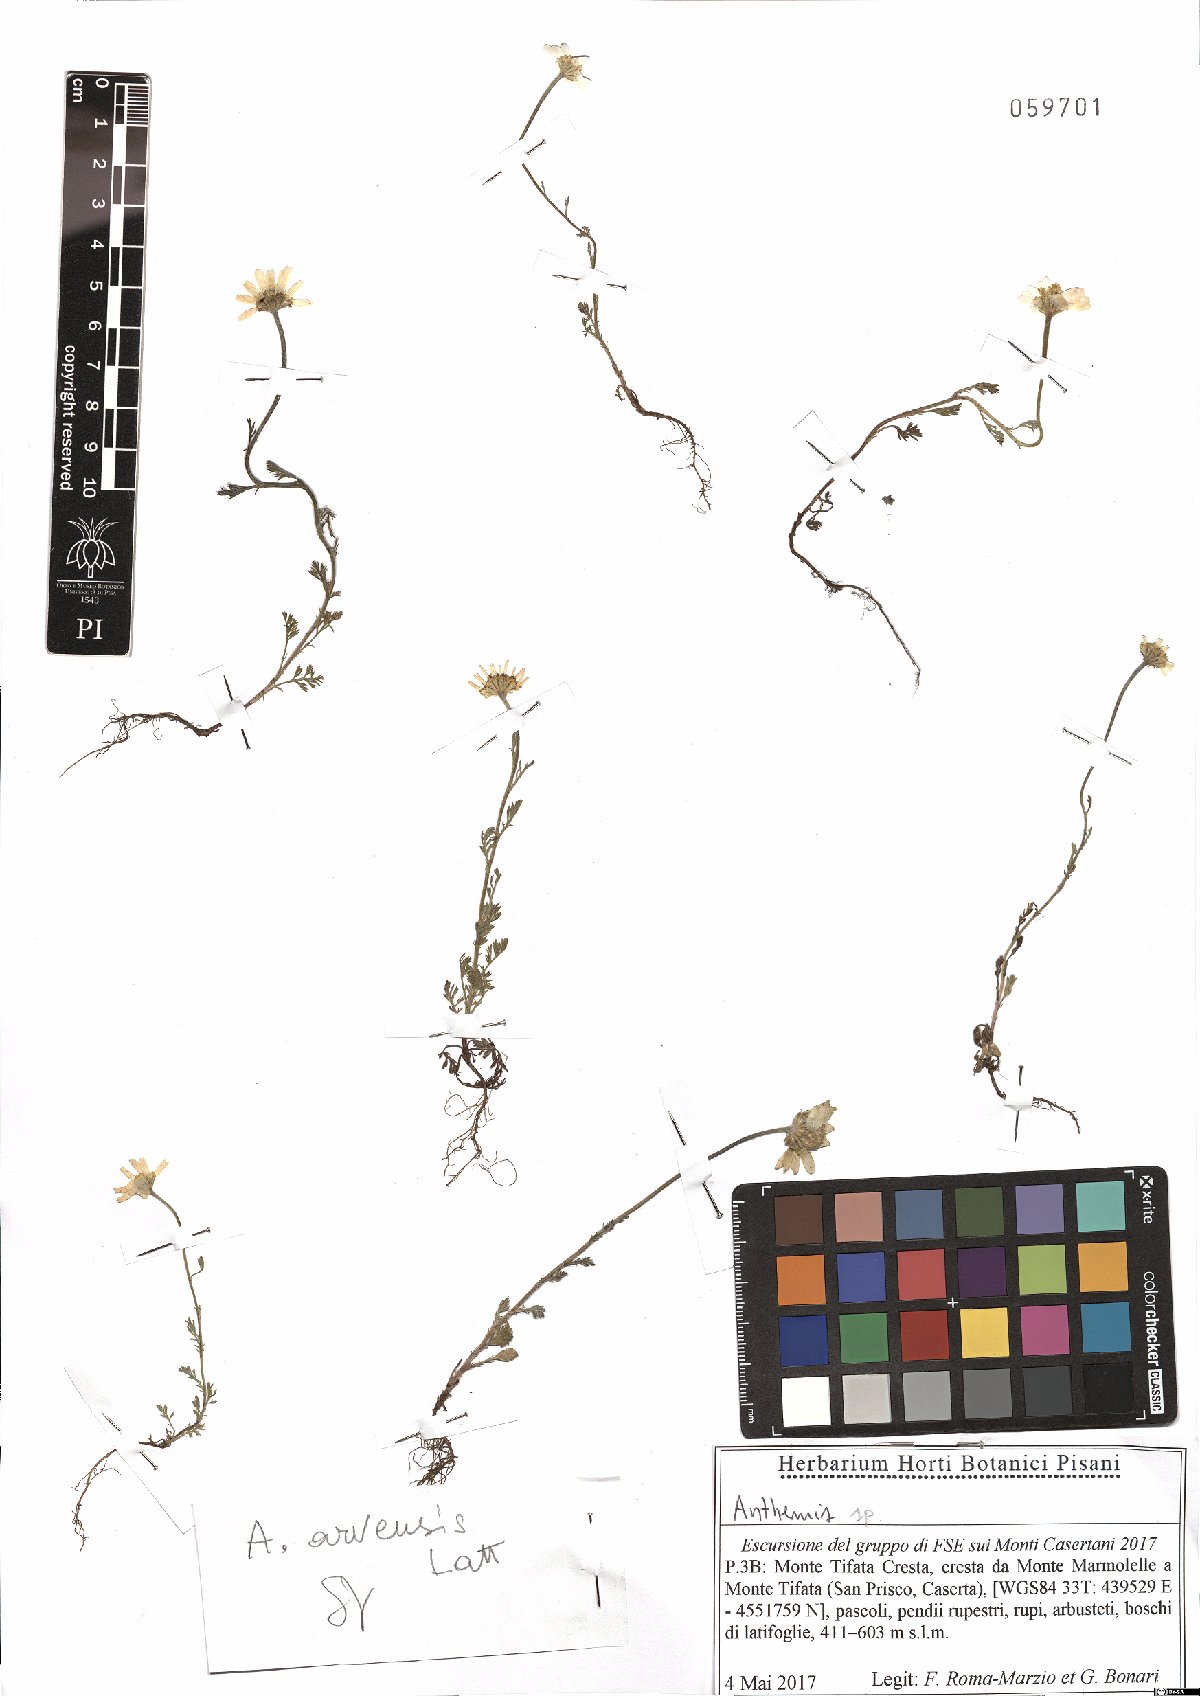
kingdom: Plantae
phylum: Tracheophyta
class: Magnoliopsida
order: Asterales
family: Asteraceae
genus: Anthemis
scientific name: Anthemis arvensis
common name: Corn chamomile
